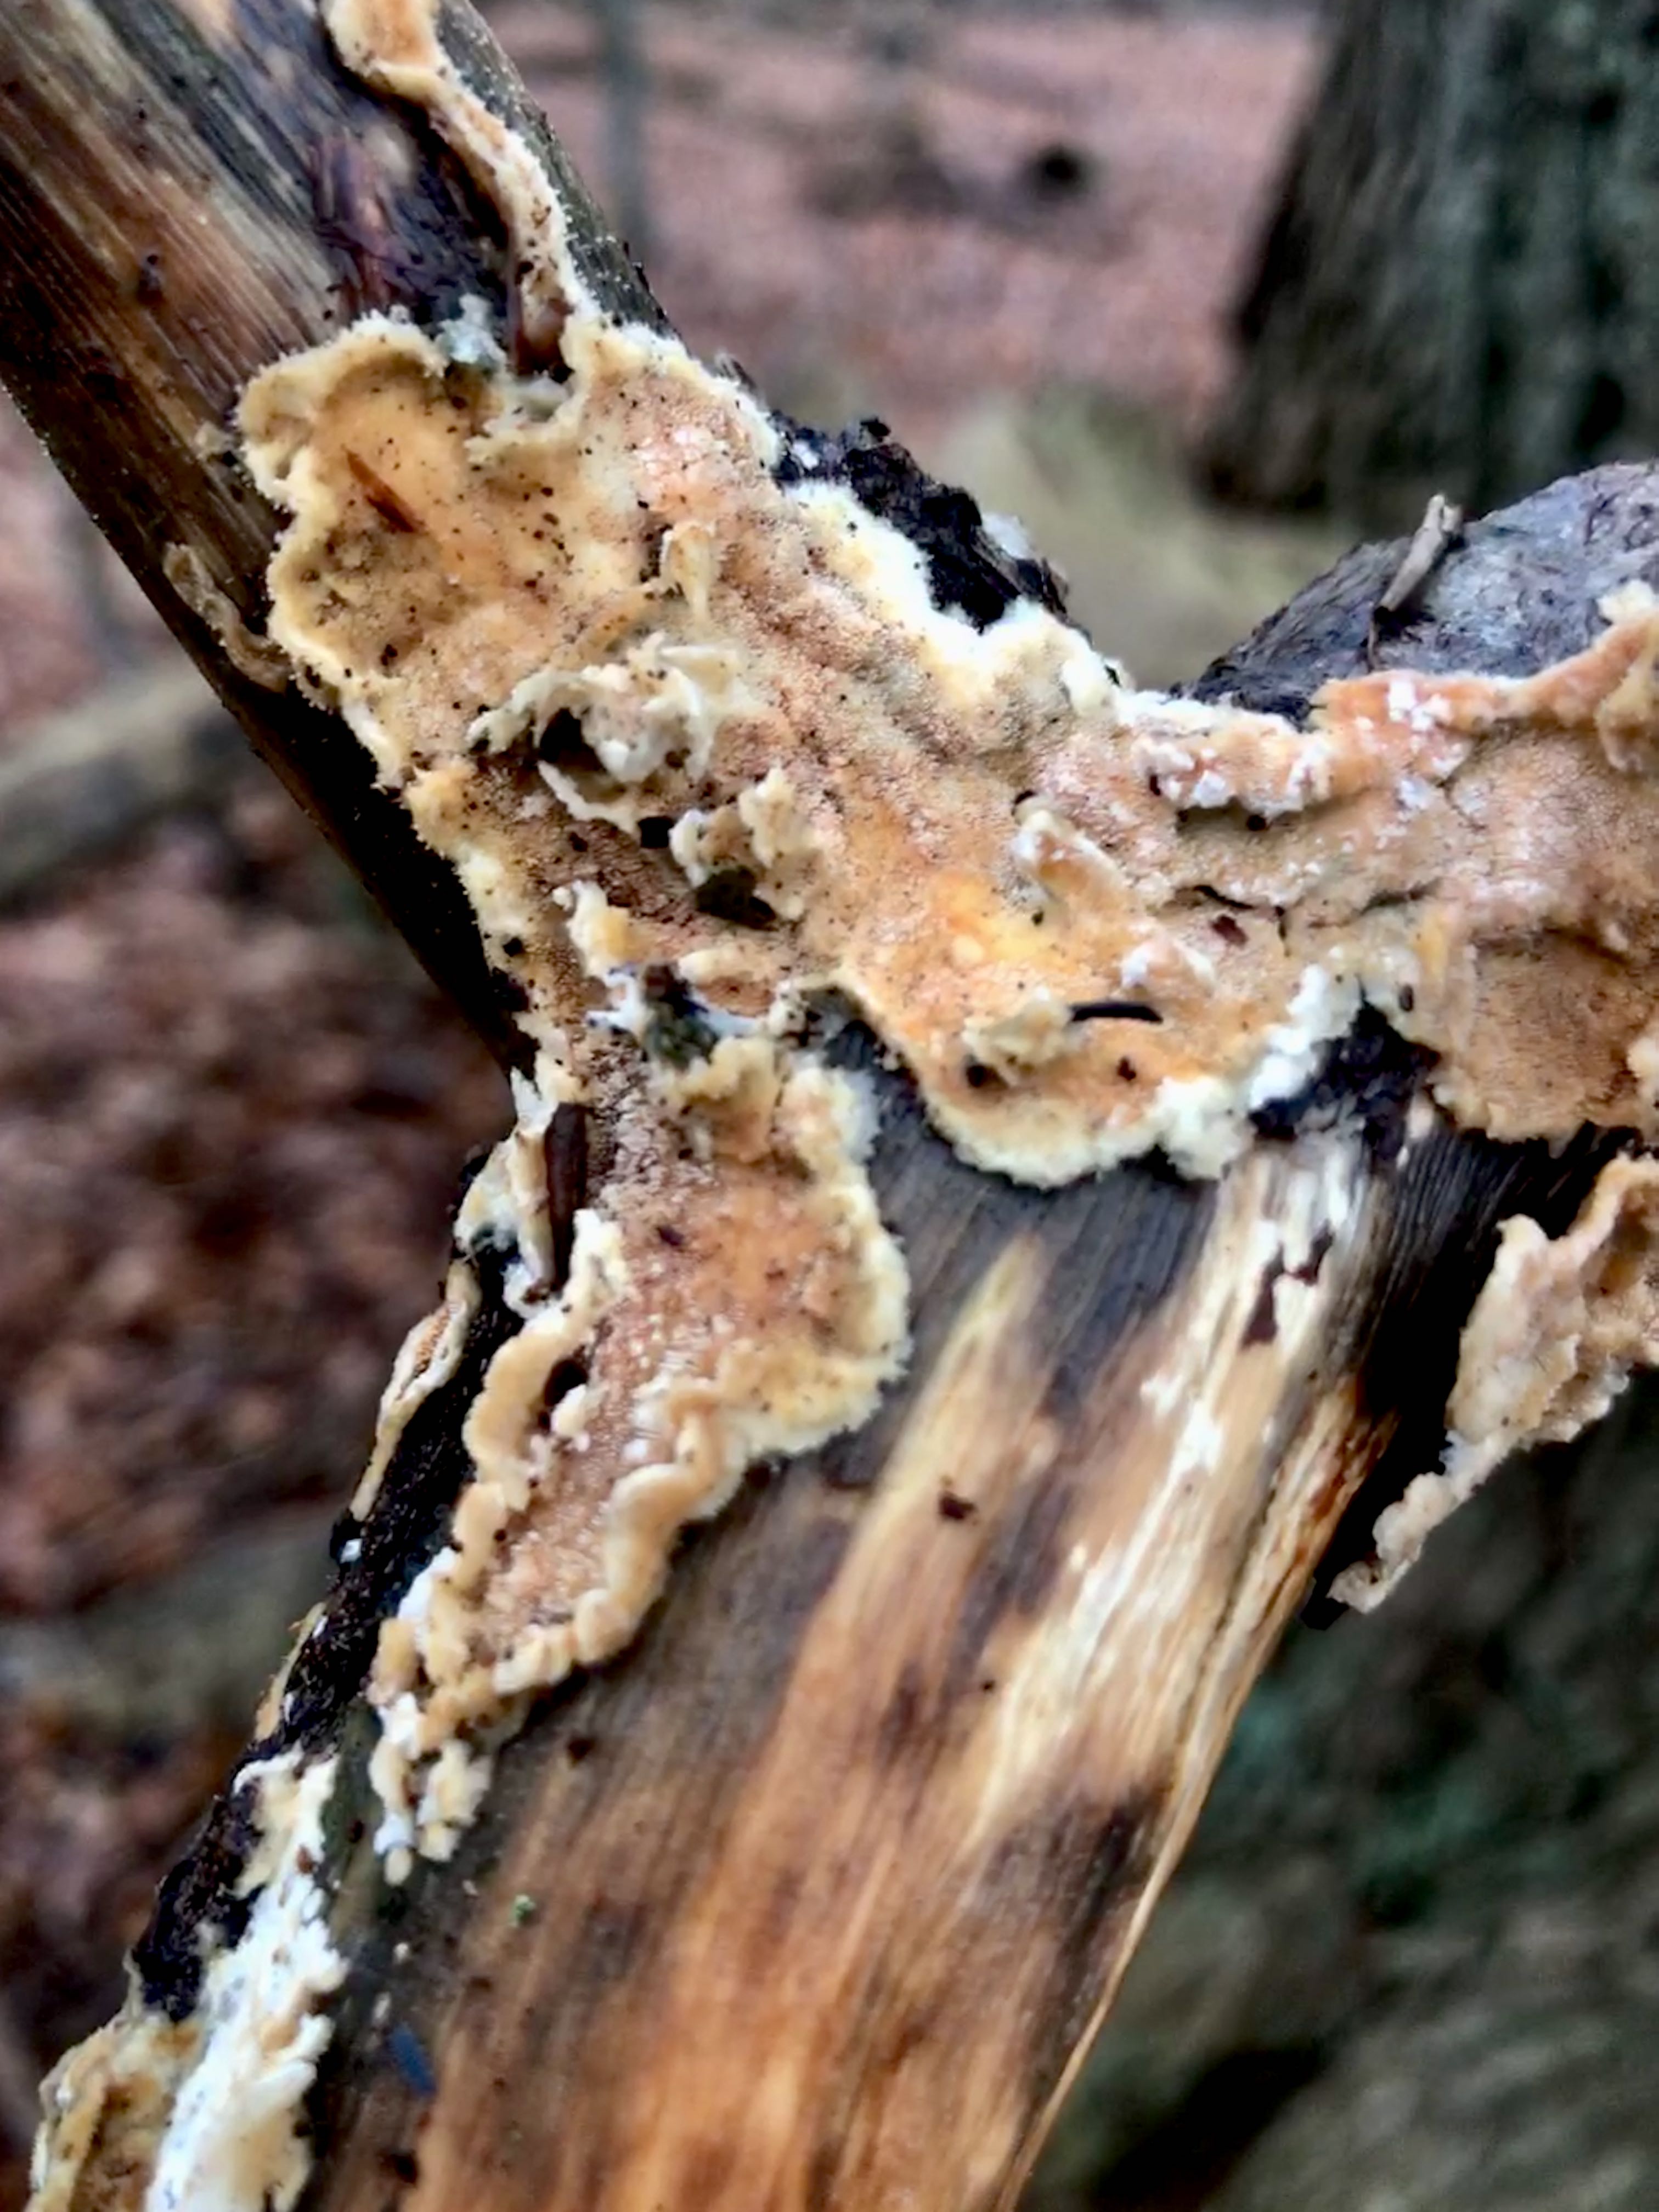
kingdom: Fungi
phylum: Basidiomycota
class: Agaricomycetes
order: Polyporales
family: Steccherinaceae
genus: Steccherinum
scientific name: Steccherinum ochraceum
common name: almindelig skønpig
